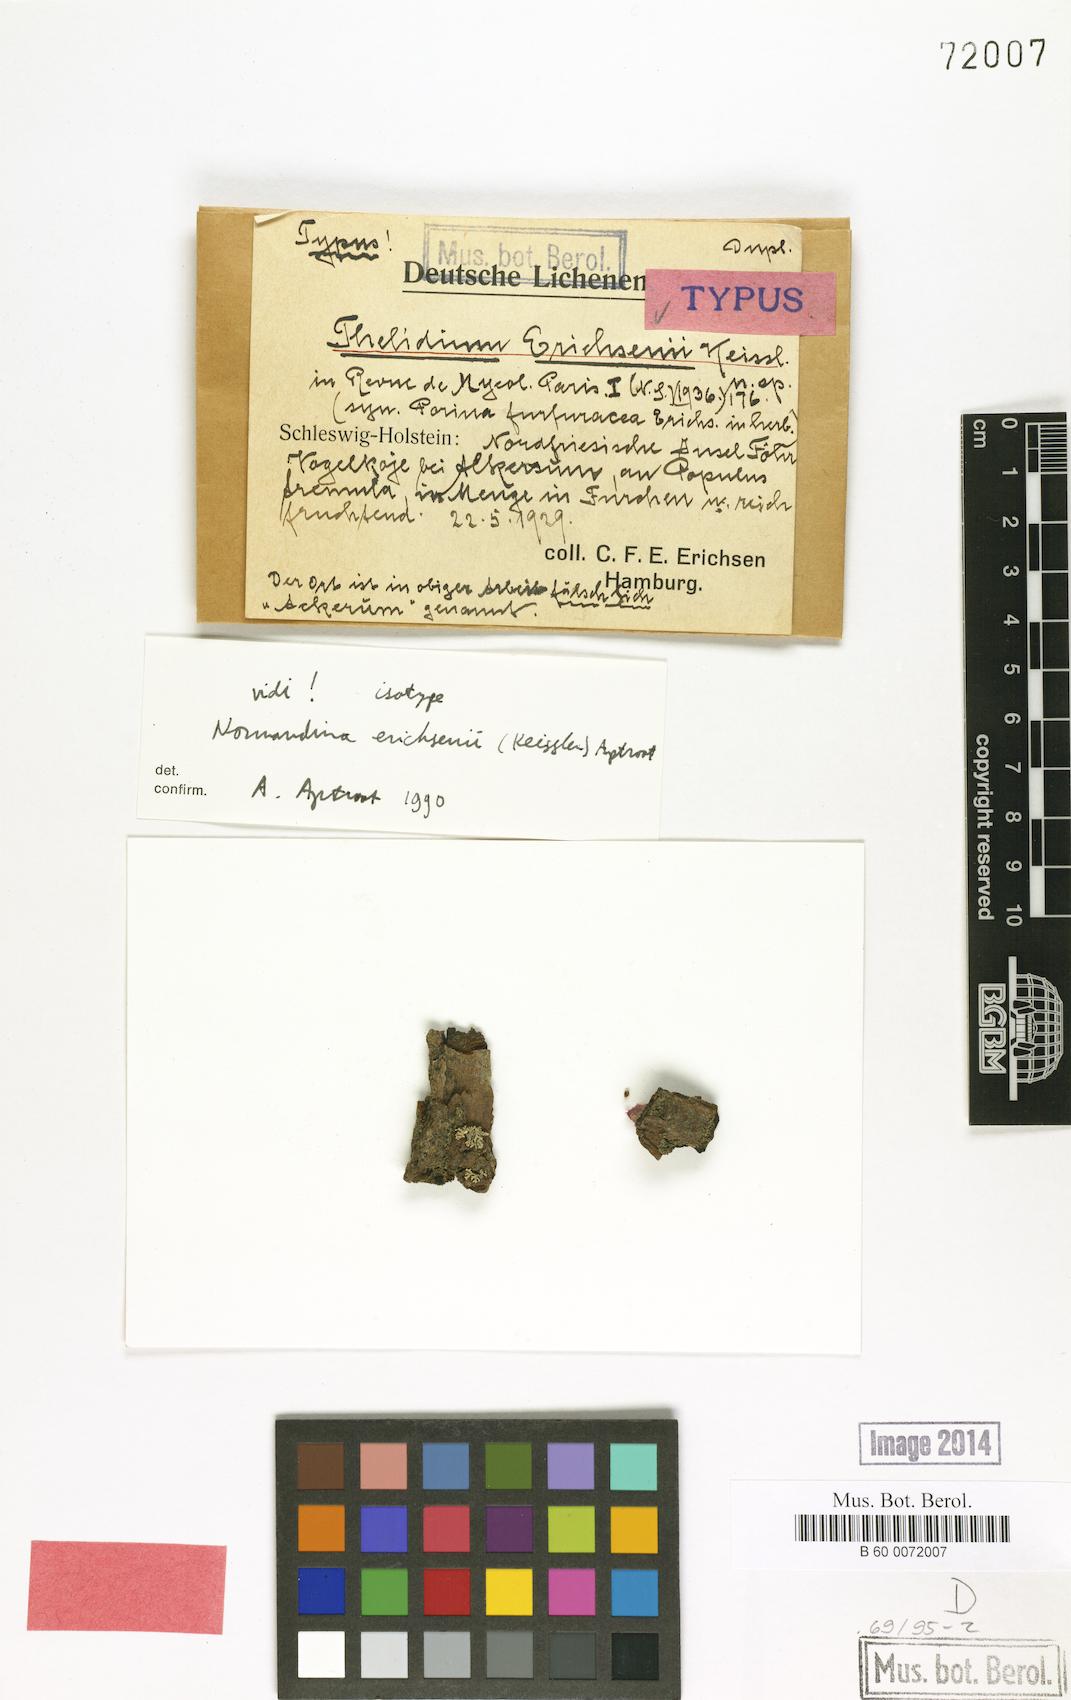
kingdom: Fungi
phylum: Ascomycota
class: Eurotiomycetes
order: Verrucariales
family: Verrucariaceae
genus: Normandina
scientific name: Normandina acroglypta
